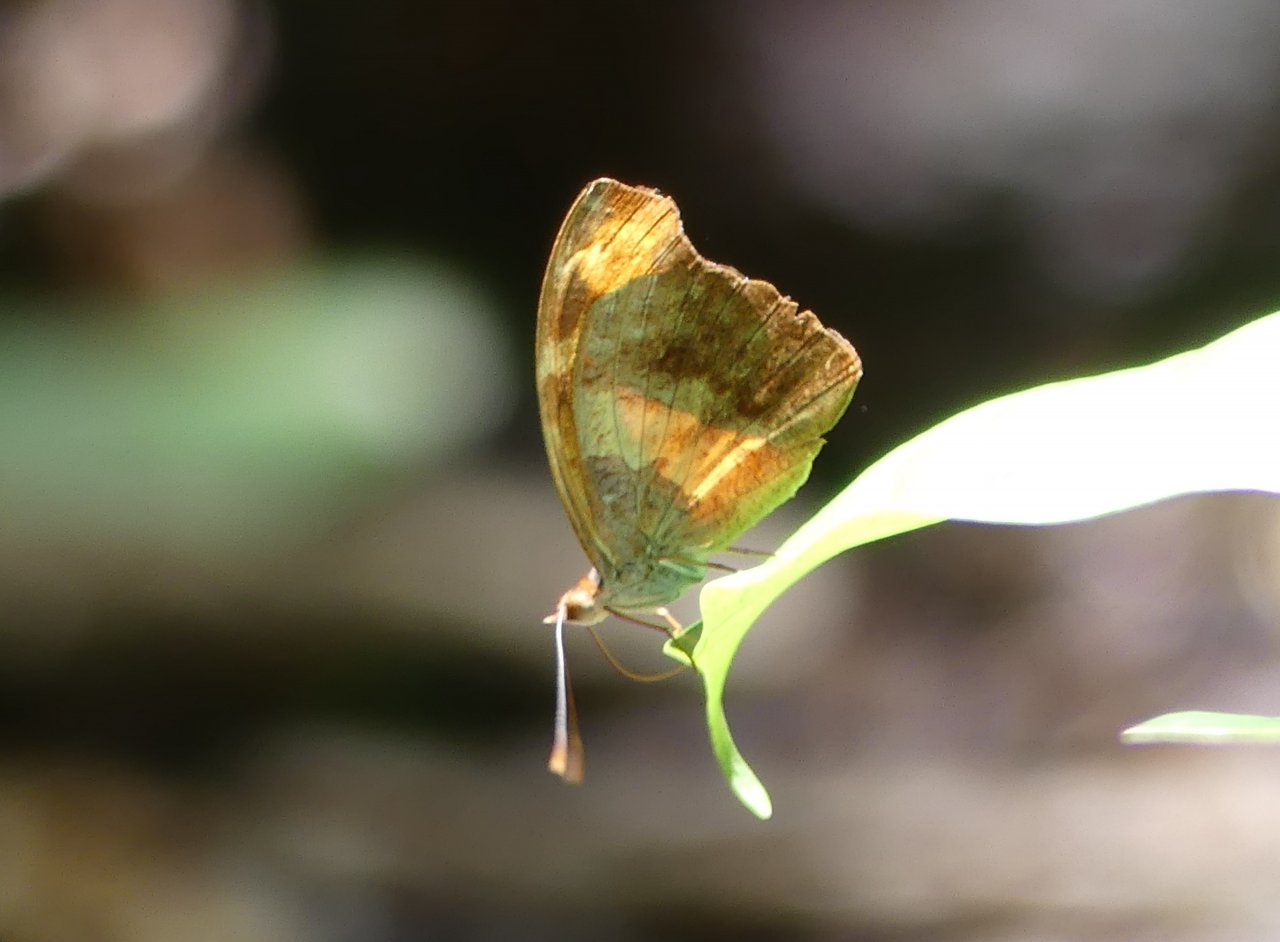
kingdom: Animalia
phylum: Arthropoda
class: Insecta
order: Lepidoptera
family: Nymphalidae
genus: Catonephele
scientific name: Catonephele mexicana
